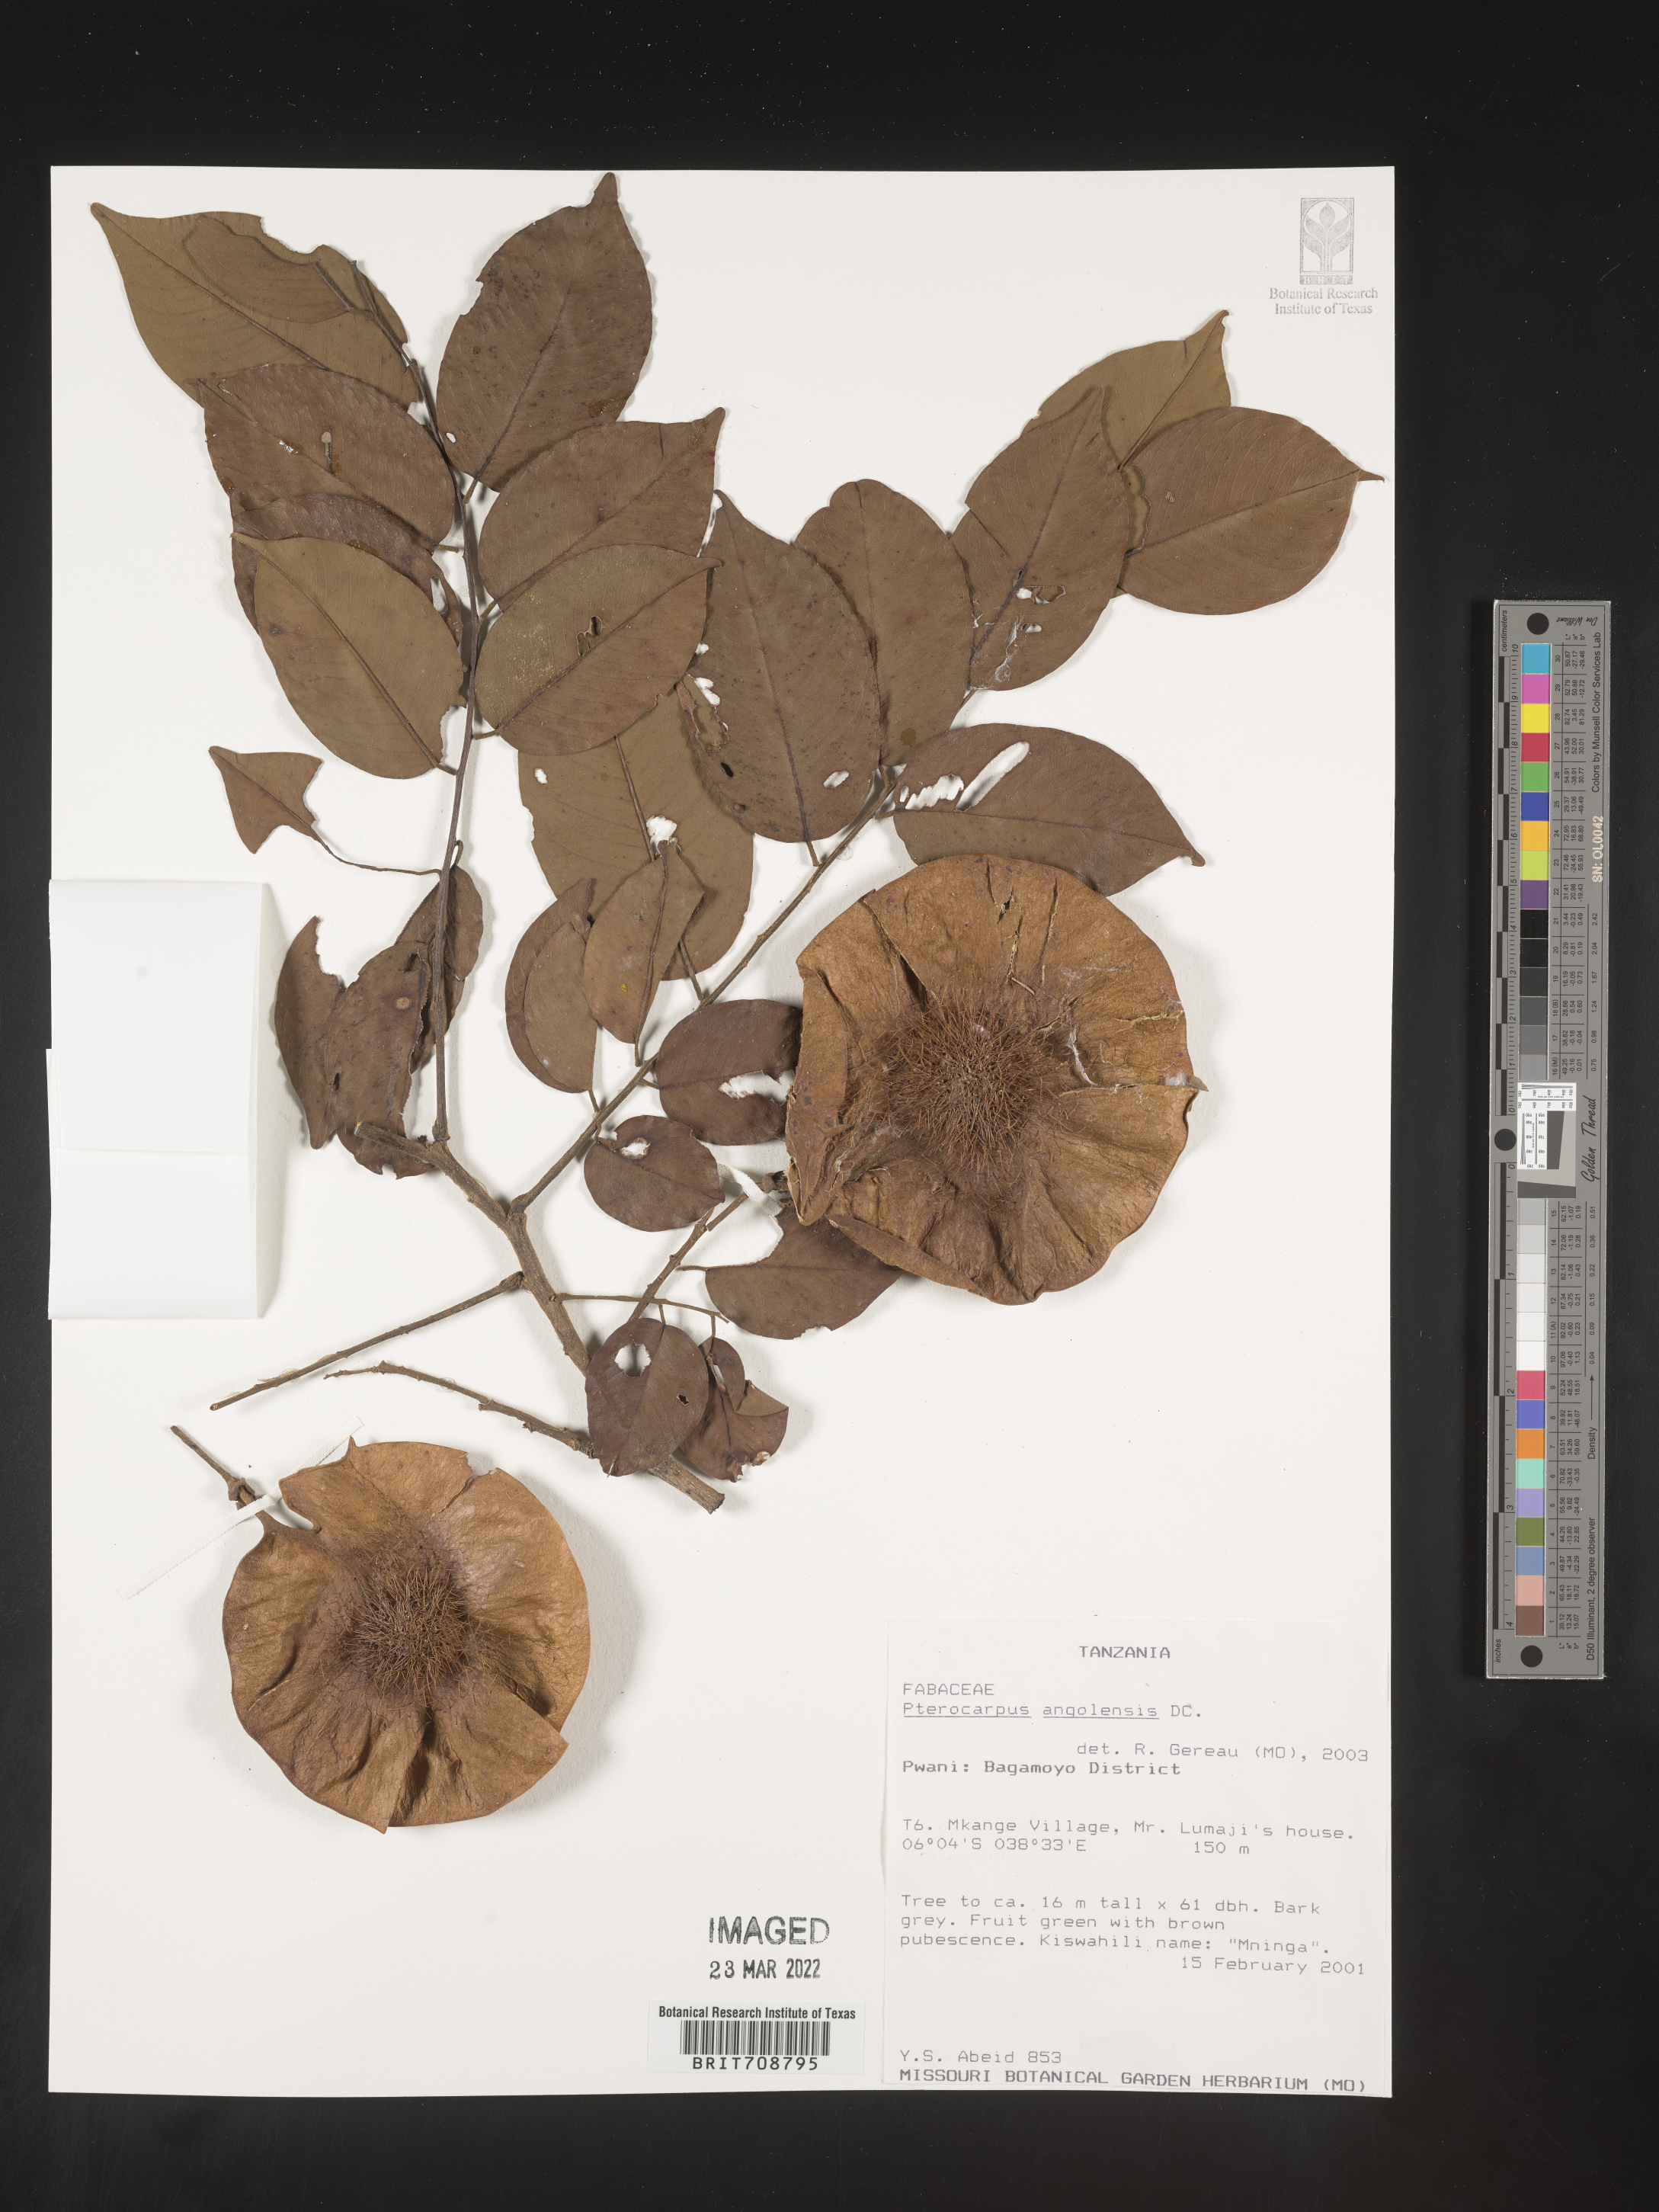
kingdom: Plantae
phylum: Tracheophyta
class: Magnoliopsida
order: Fabales
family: Fabaceae
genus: Pterocarpus
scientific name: Pterocarpus
